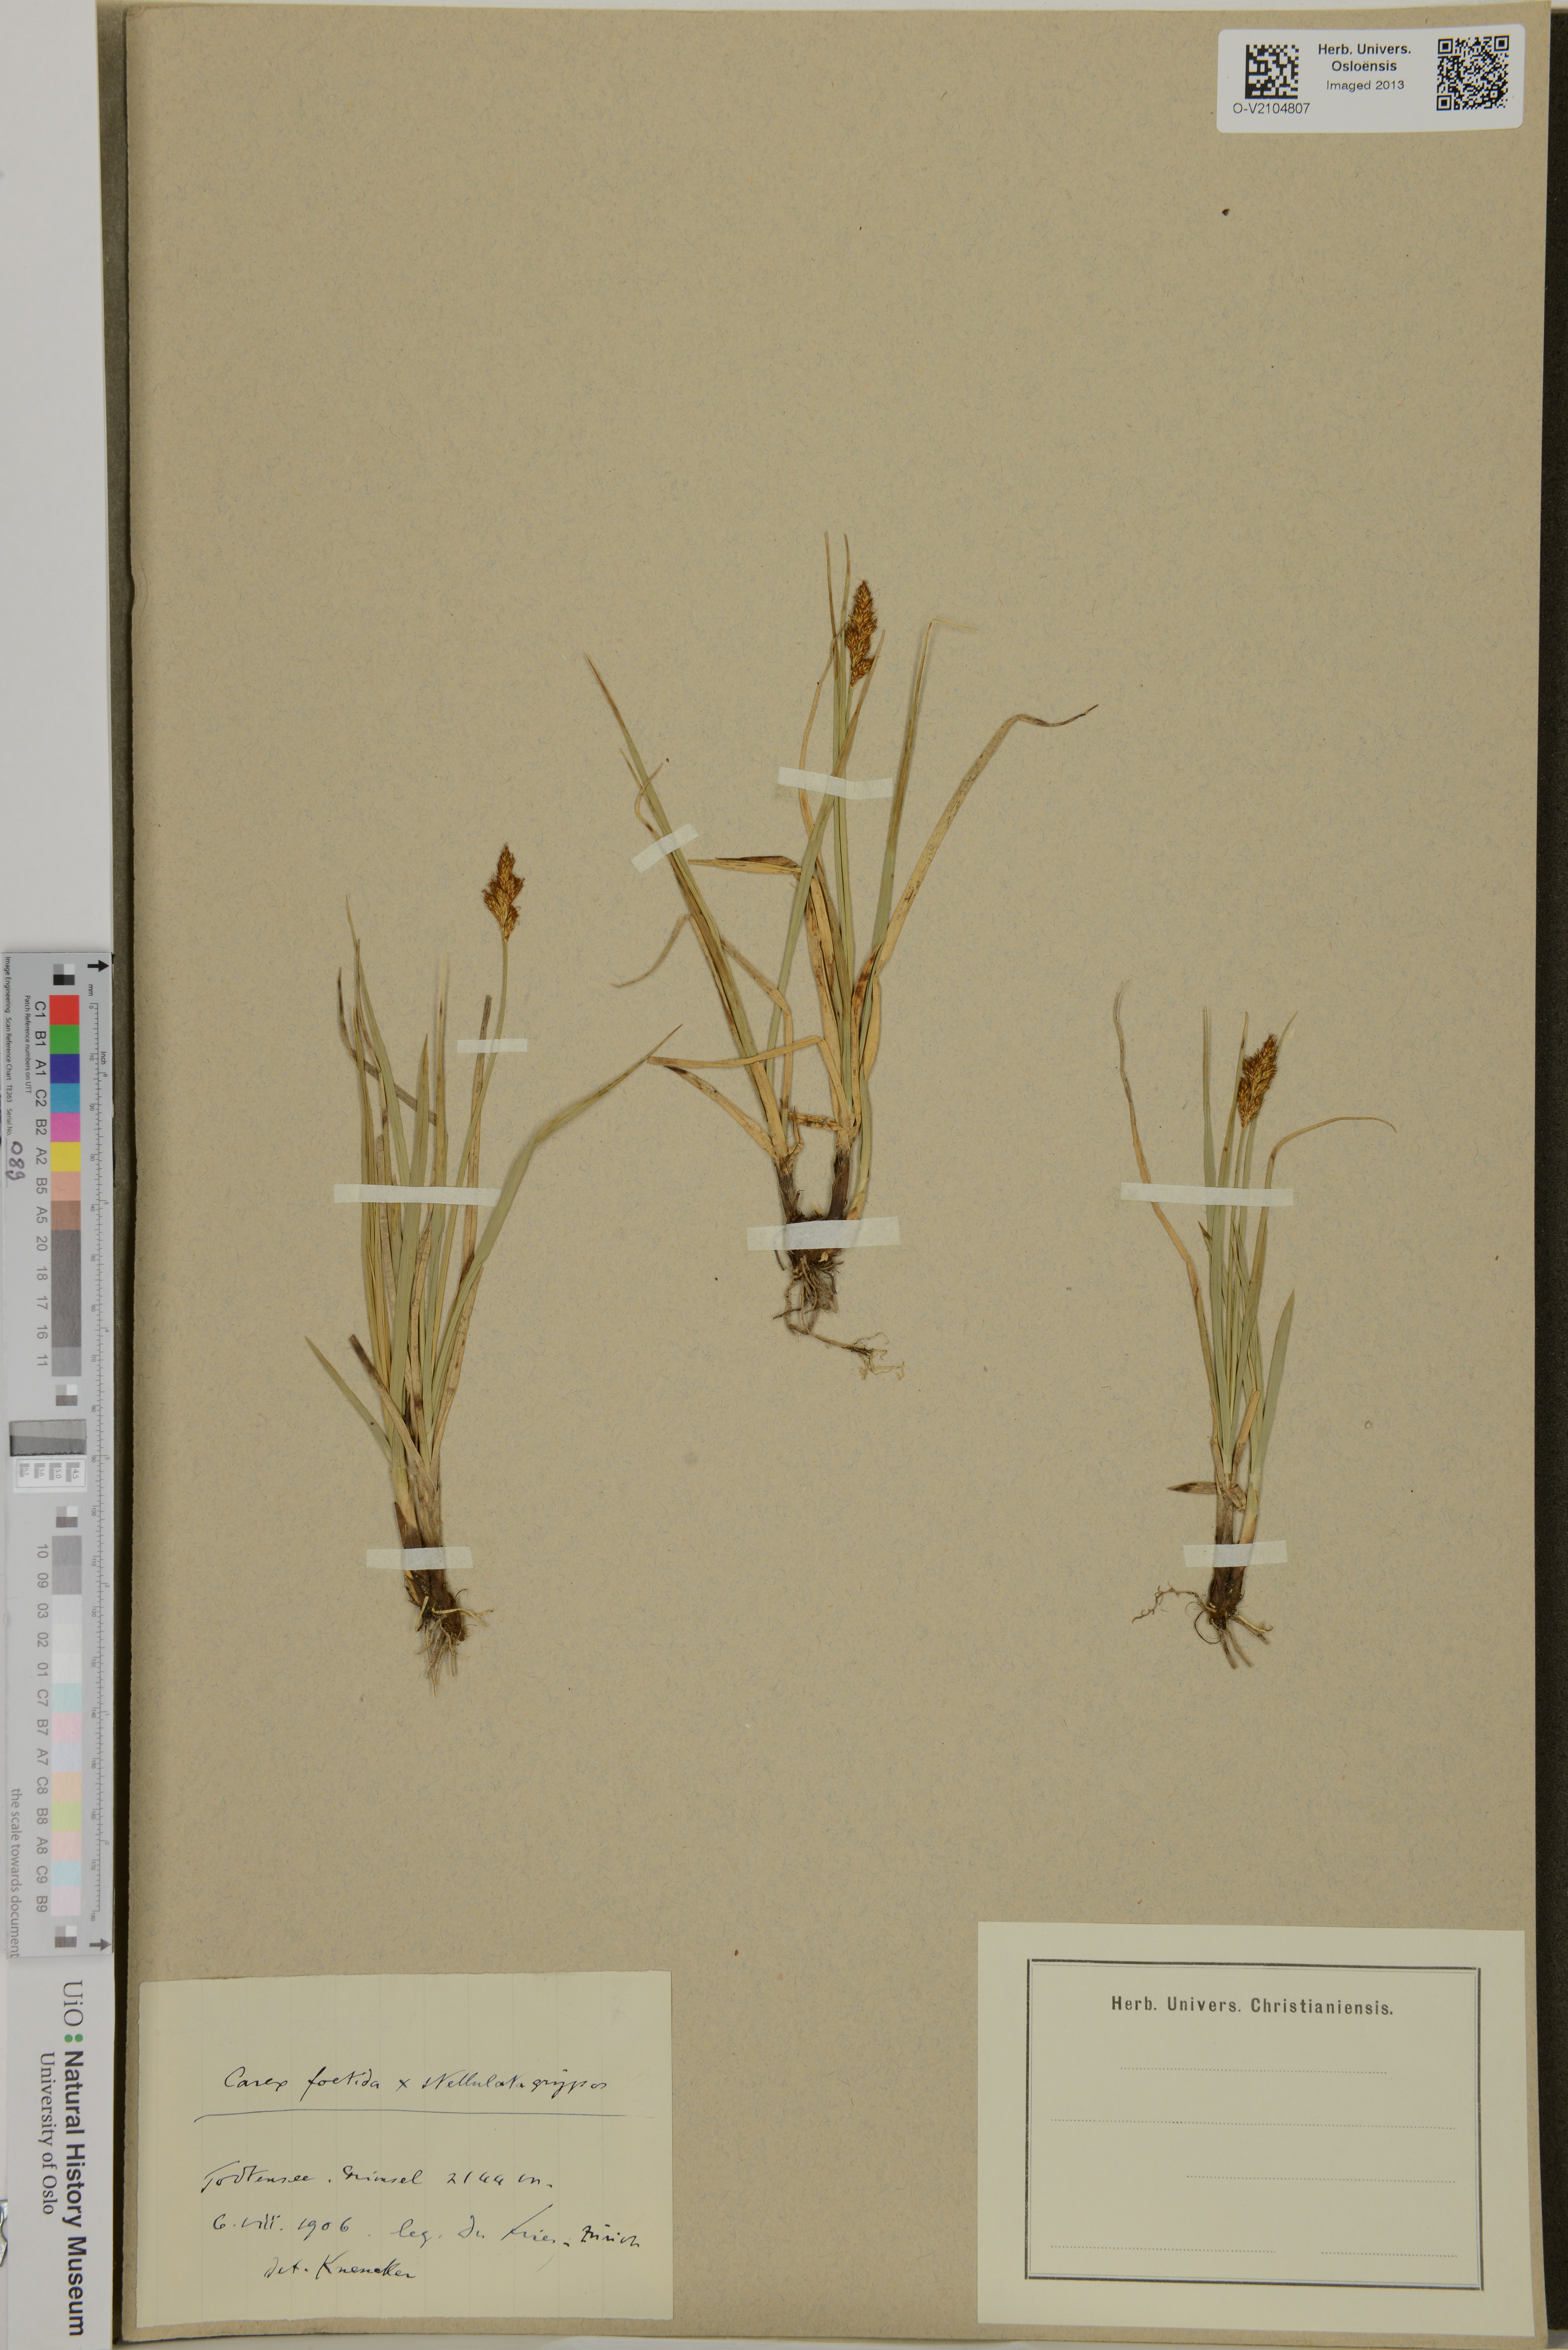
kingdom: Plantae
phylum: Tracheophyta
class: Liliopsida
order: Poales
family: Cyperaceae
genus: Carex
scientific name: Carex
